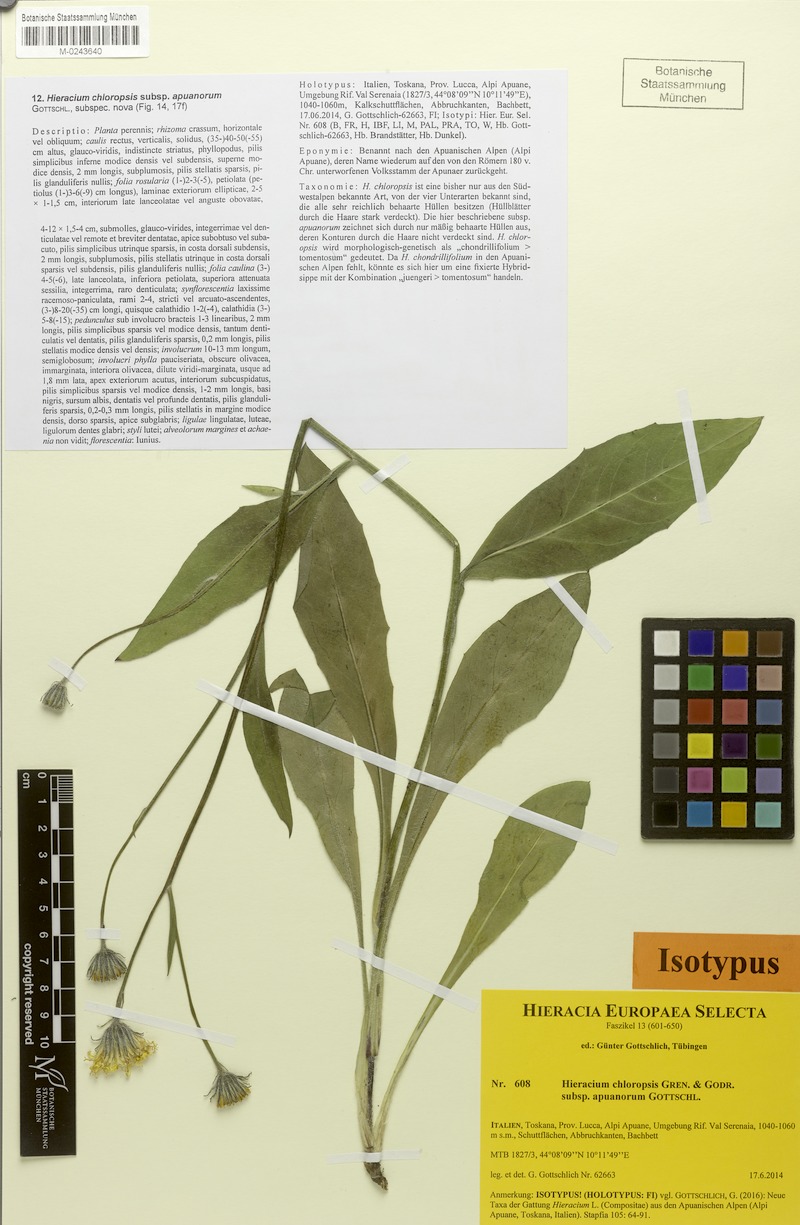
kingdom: Plantae
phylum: Tracheophyta
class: Magnoliopsida
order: Asterales
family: Asteraceae
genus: Hieracium
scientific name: Hieracium chloropsis
